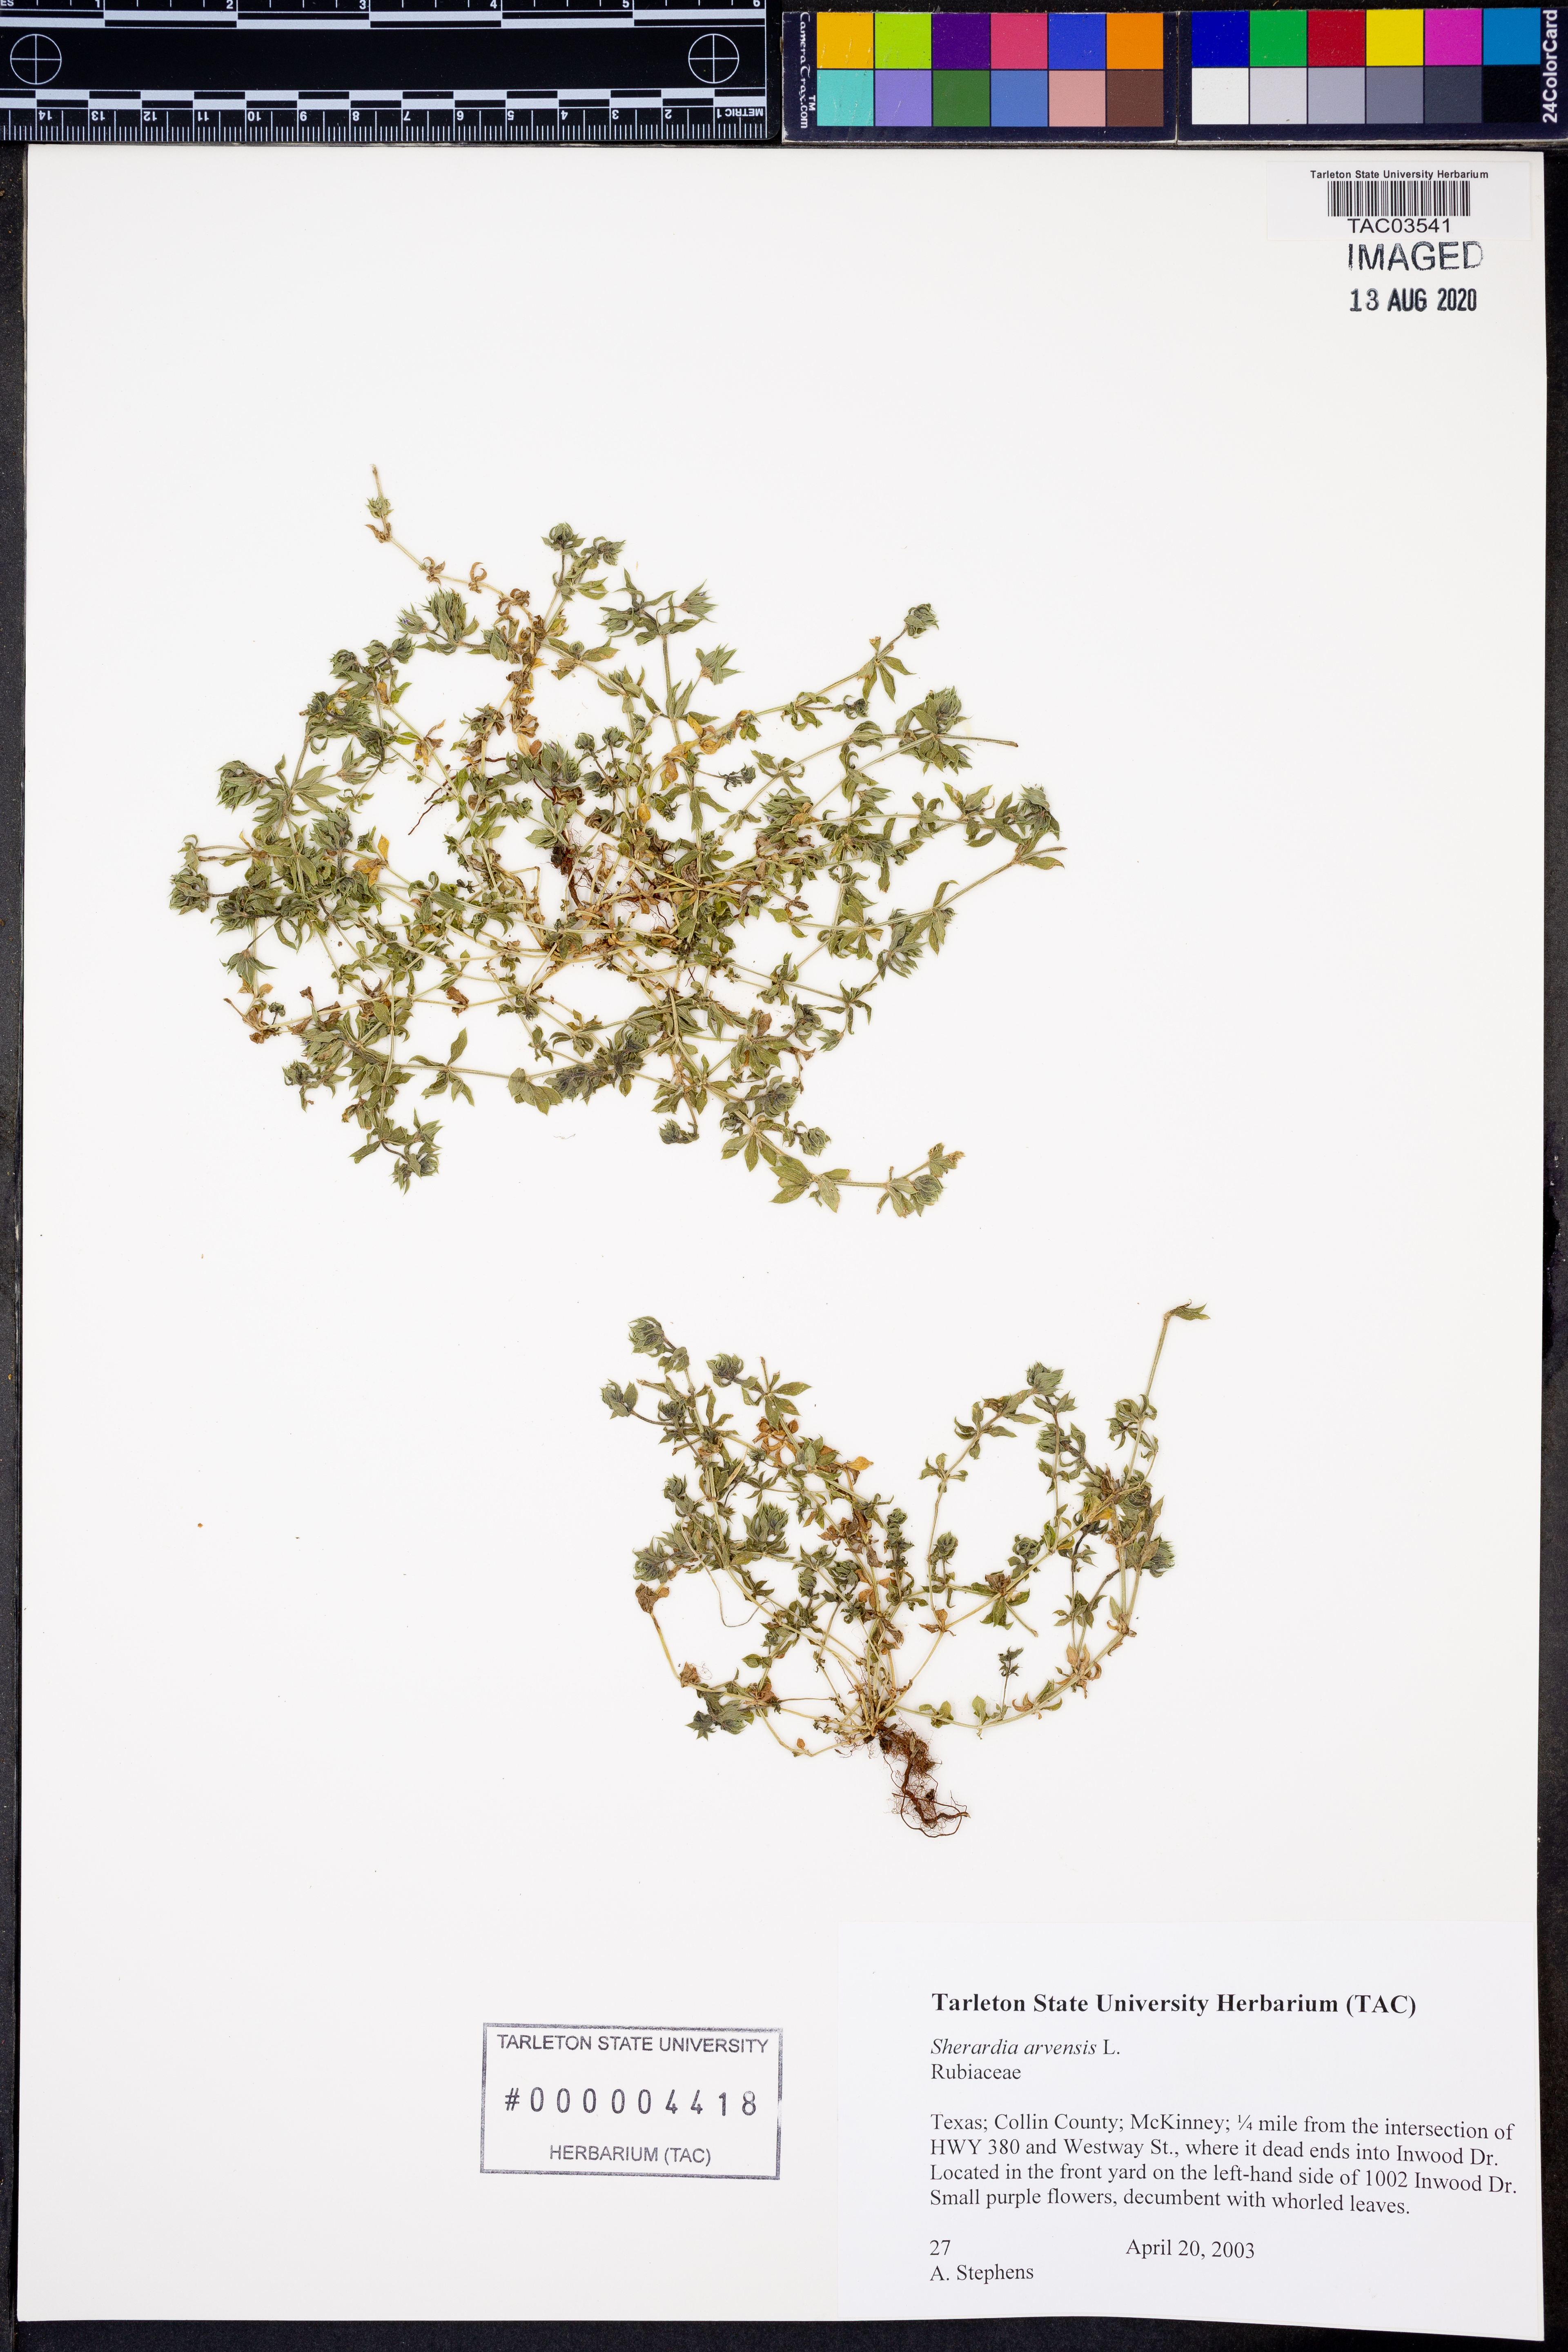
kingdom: Plantae
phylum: Tracheophyta
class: Magnoliopsida
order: Gentianales
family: Rubiaceae
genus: Sherardia
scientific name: Sherardia arvensis
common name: Field madder
